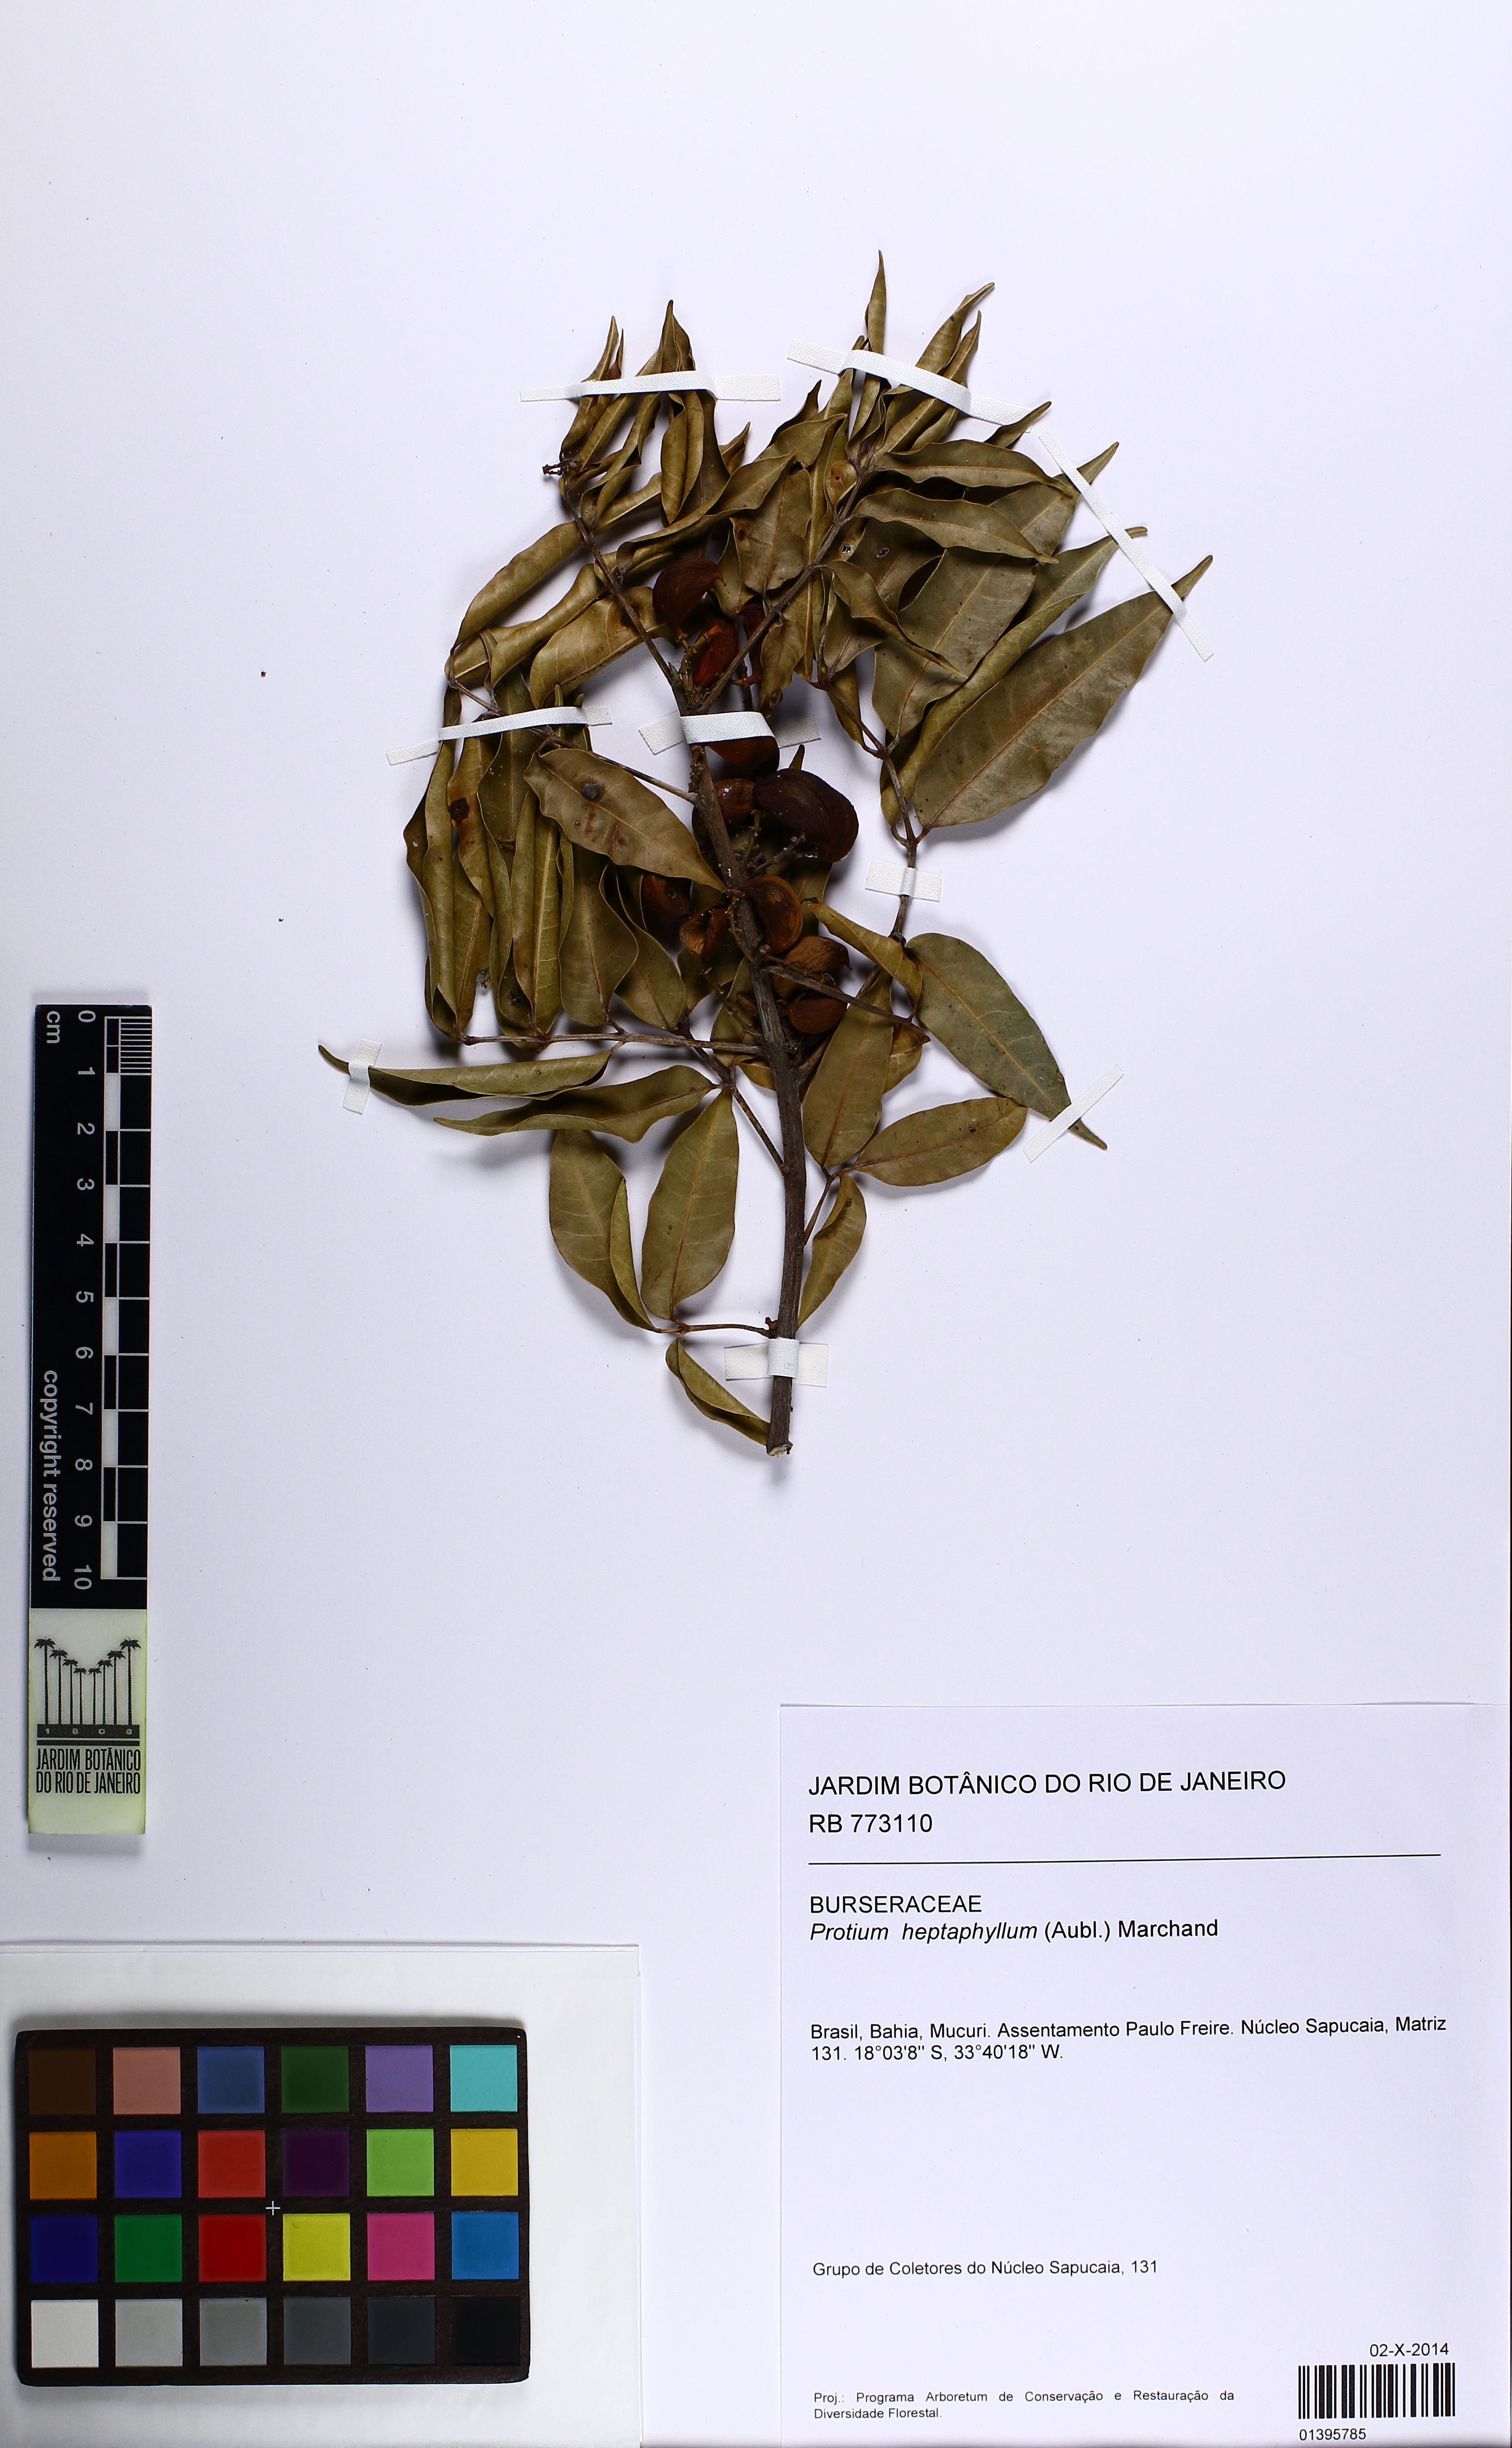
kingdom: Plantae
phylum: Tracheophyta
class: Magnoliopsida
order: Sapindales
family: Burseraceae
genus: Protium
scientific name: Protium heptaphyllum
